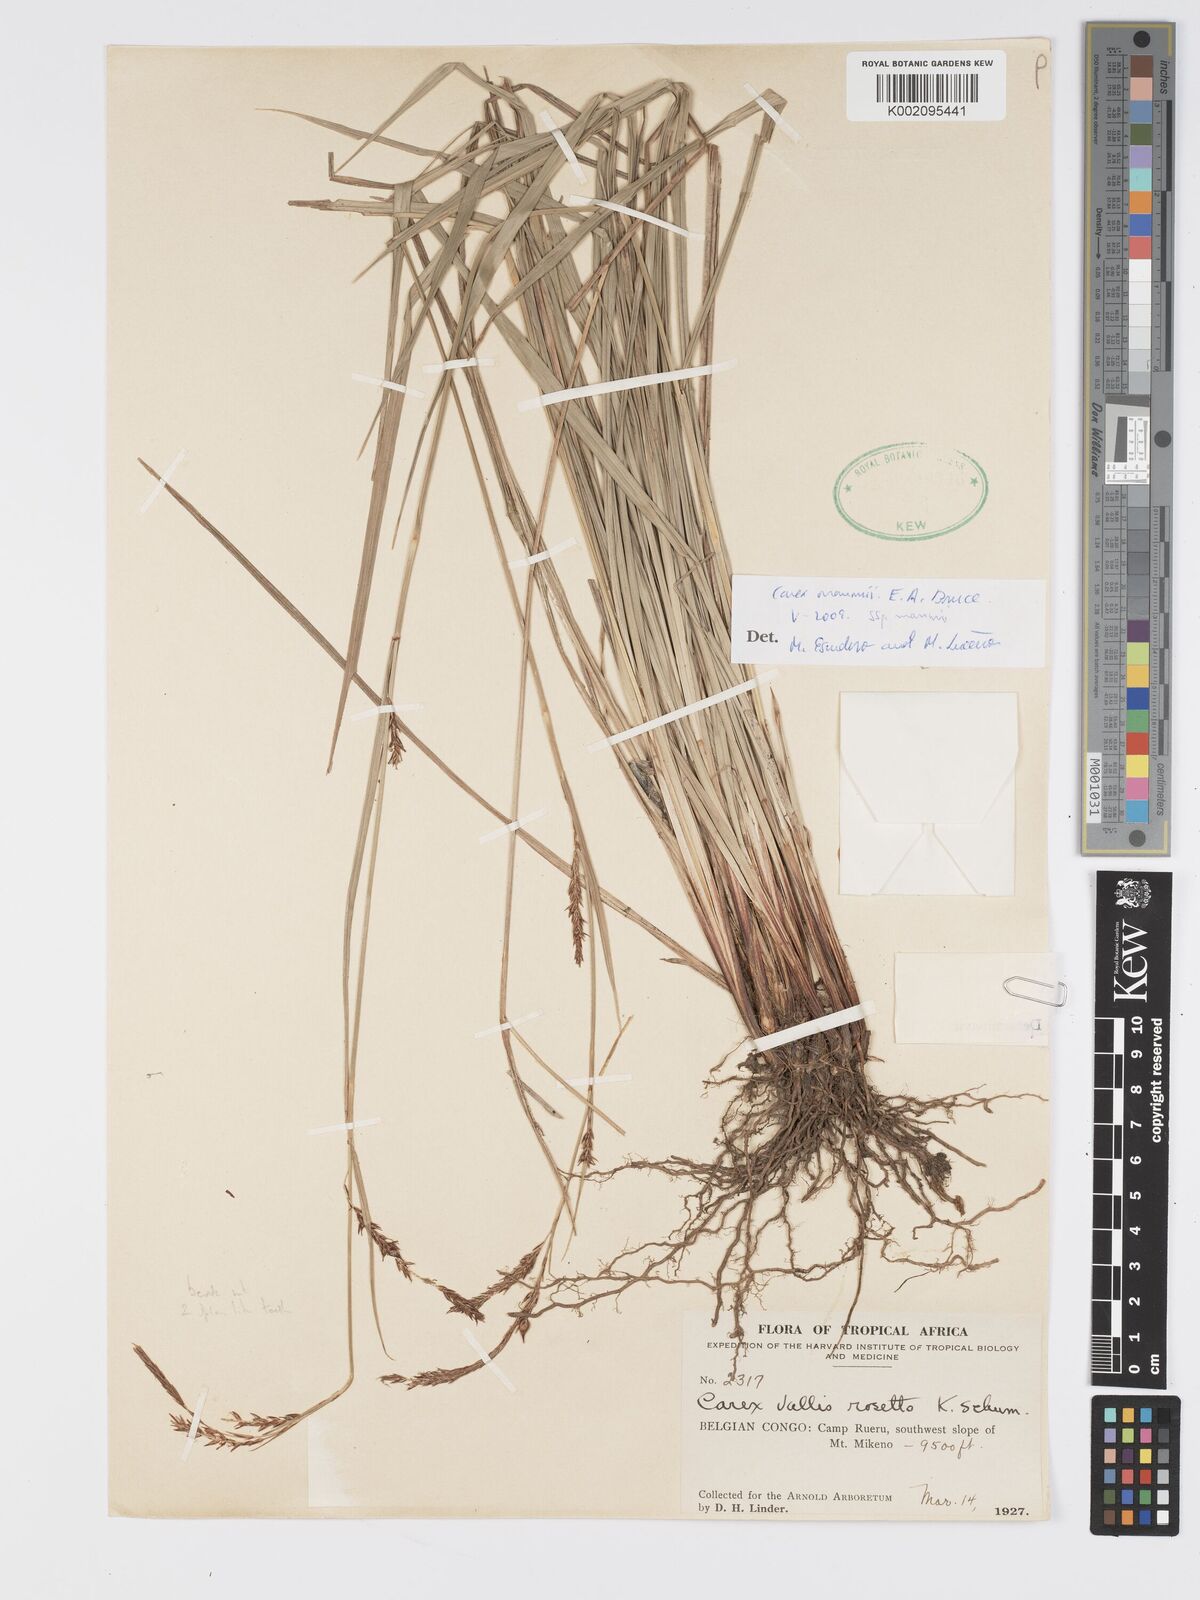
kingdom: Plantae
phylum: Tracheophyta
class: Liliopsida
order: Poales
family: Cyperaceae
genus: Carex
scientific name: Carex mannii
